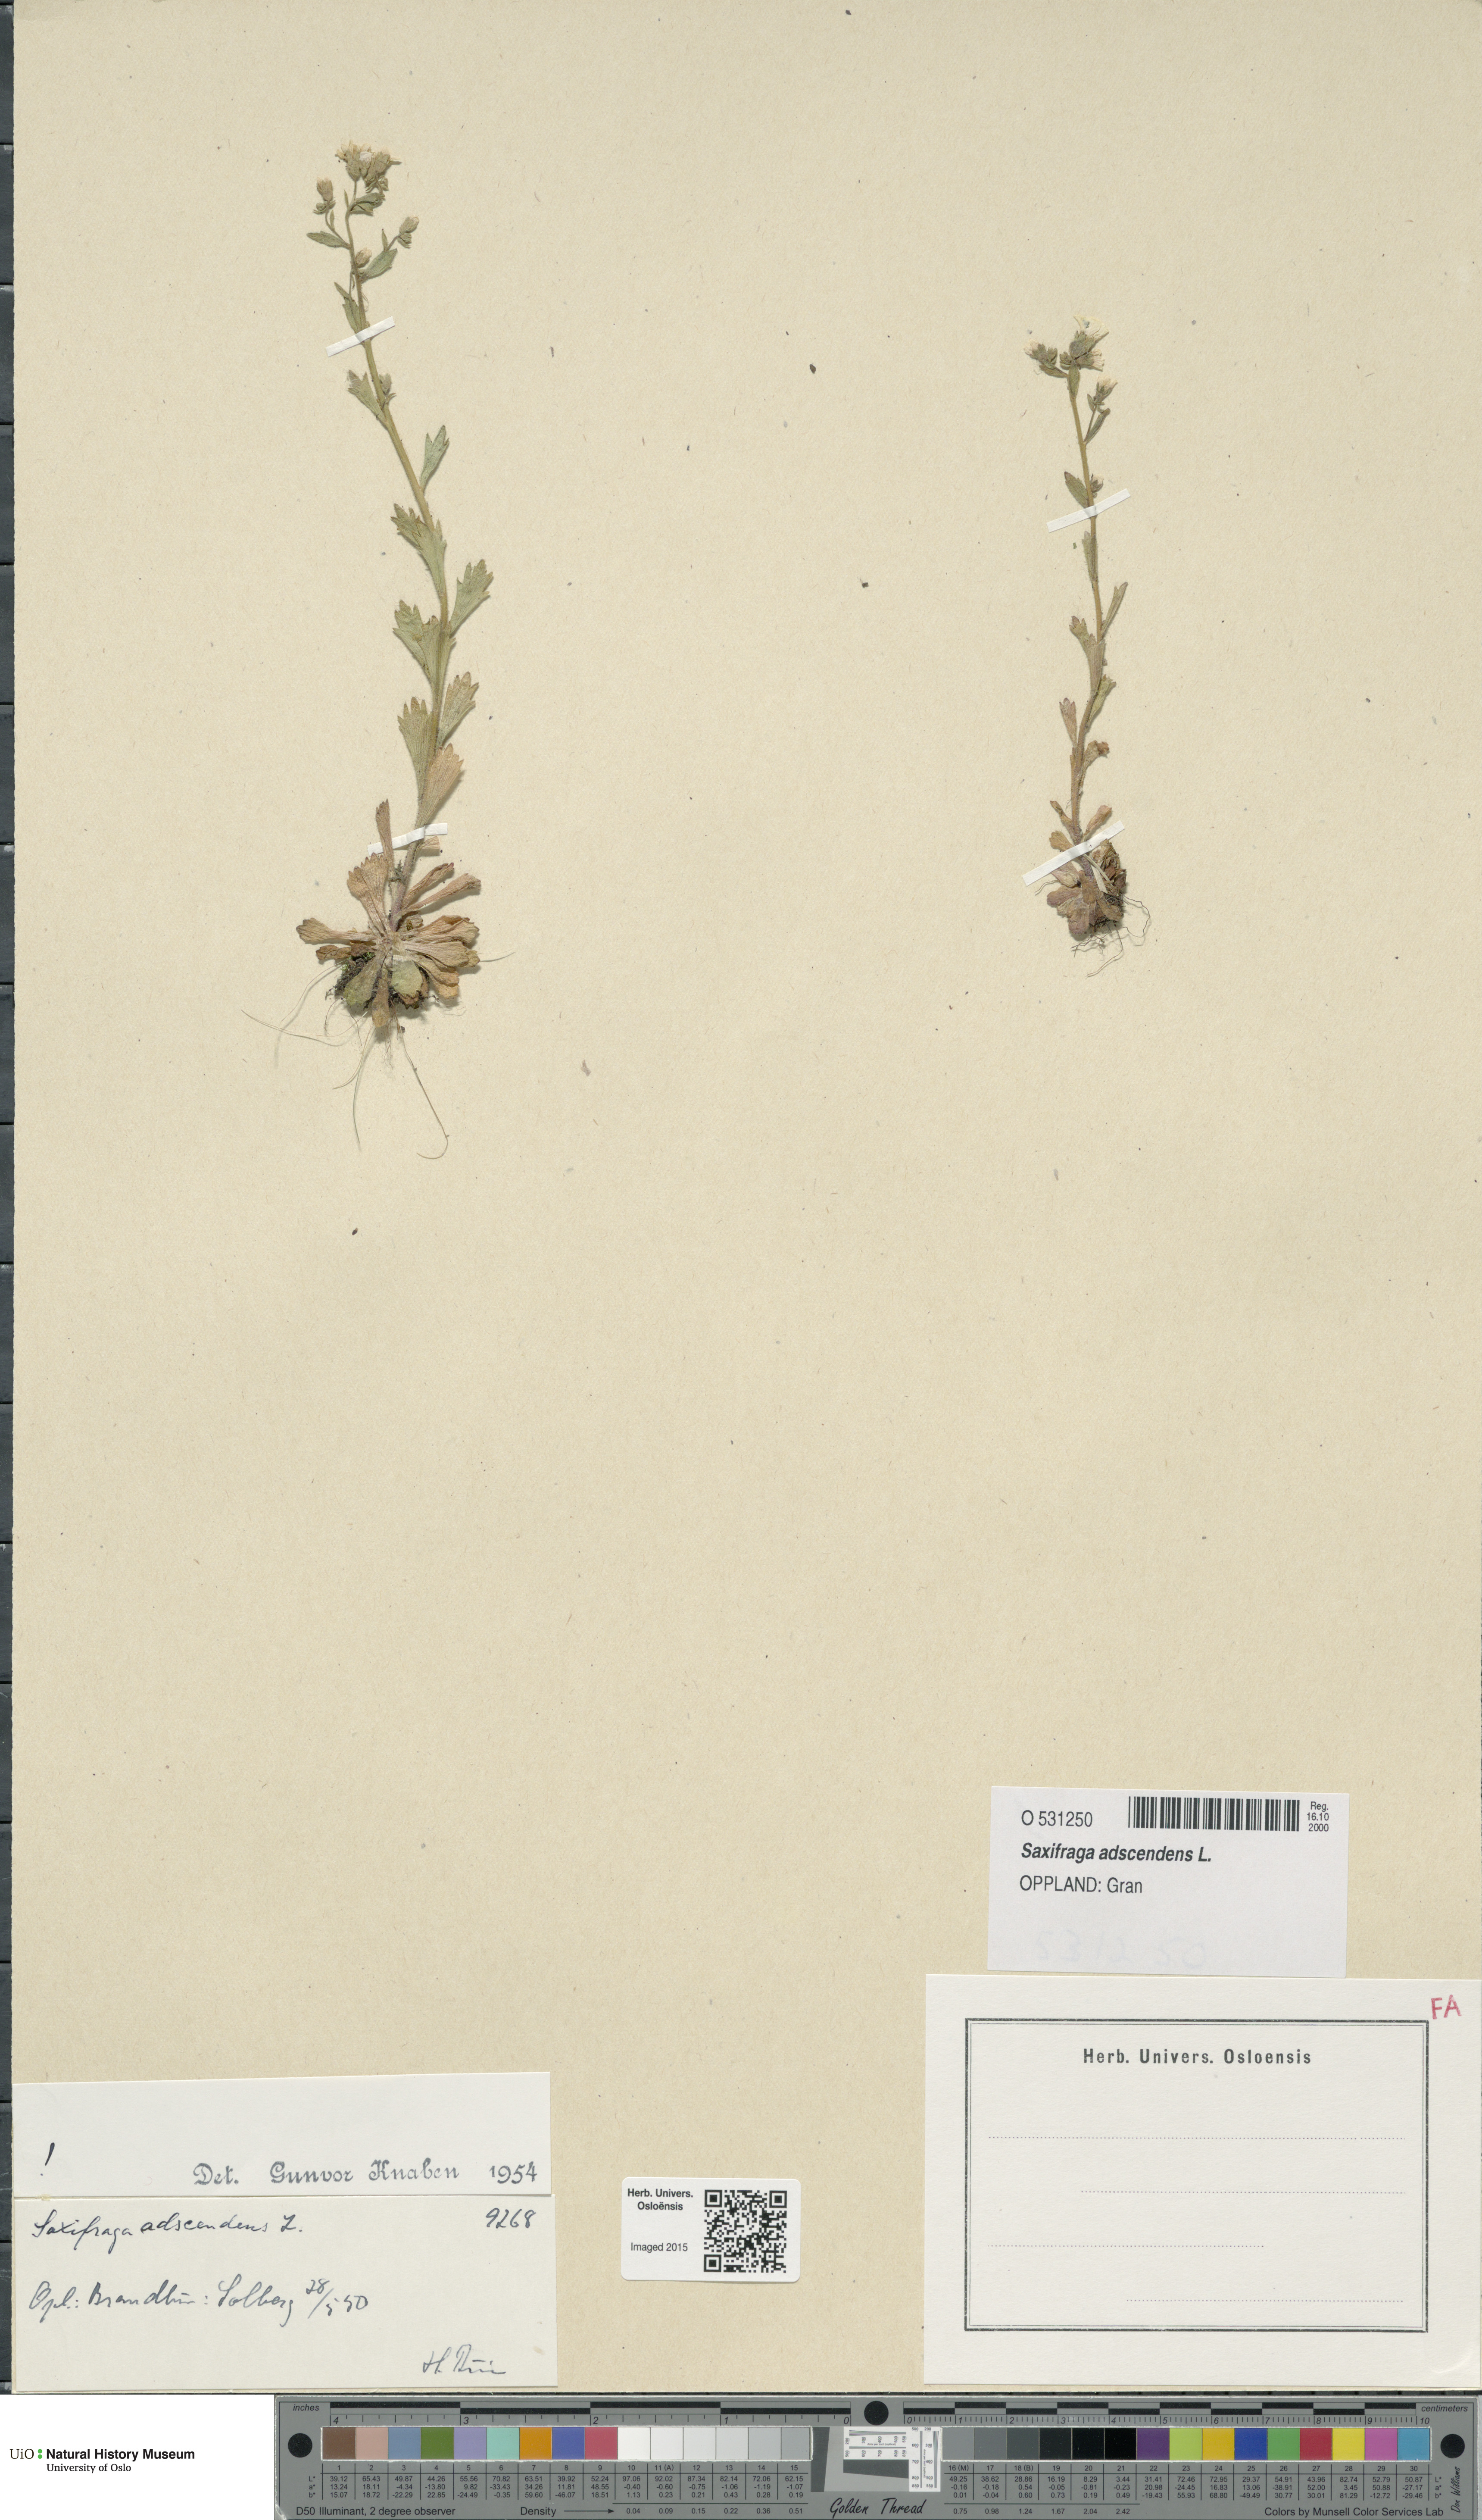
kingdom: Plantae
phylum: Tracheophyta
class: Magnoliopsida
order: Saxifragales
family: Saxifragaceae
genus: Saxifraga
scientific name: Saxifraga adscendens
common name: Ascending saxifrage
